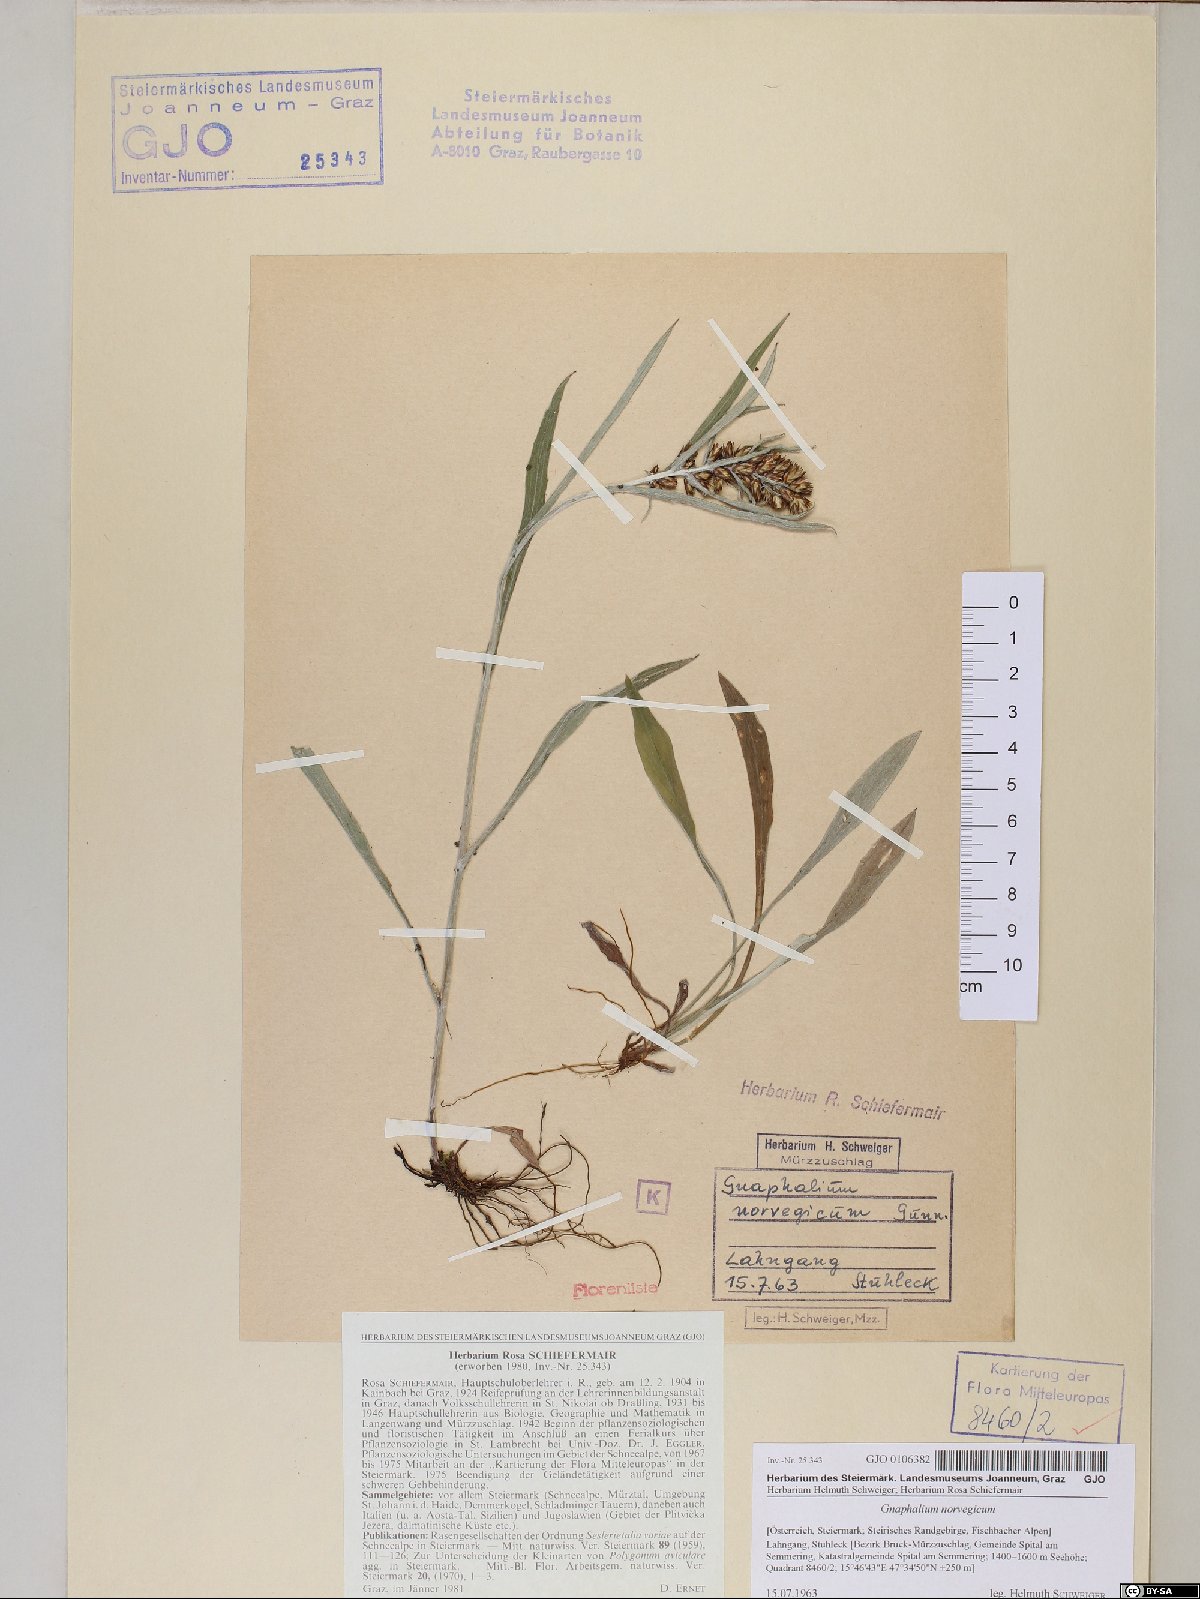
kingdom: Plantae
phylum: Tracheophyta
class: Magnoliopsida
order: Asterales
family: Asteraceae
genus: Omalotheca
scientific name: Omalotheca norvegica
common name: Norwegian arctic-cudweed
